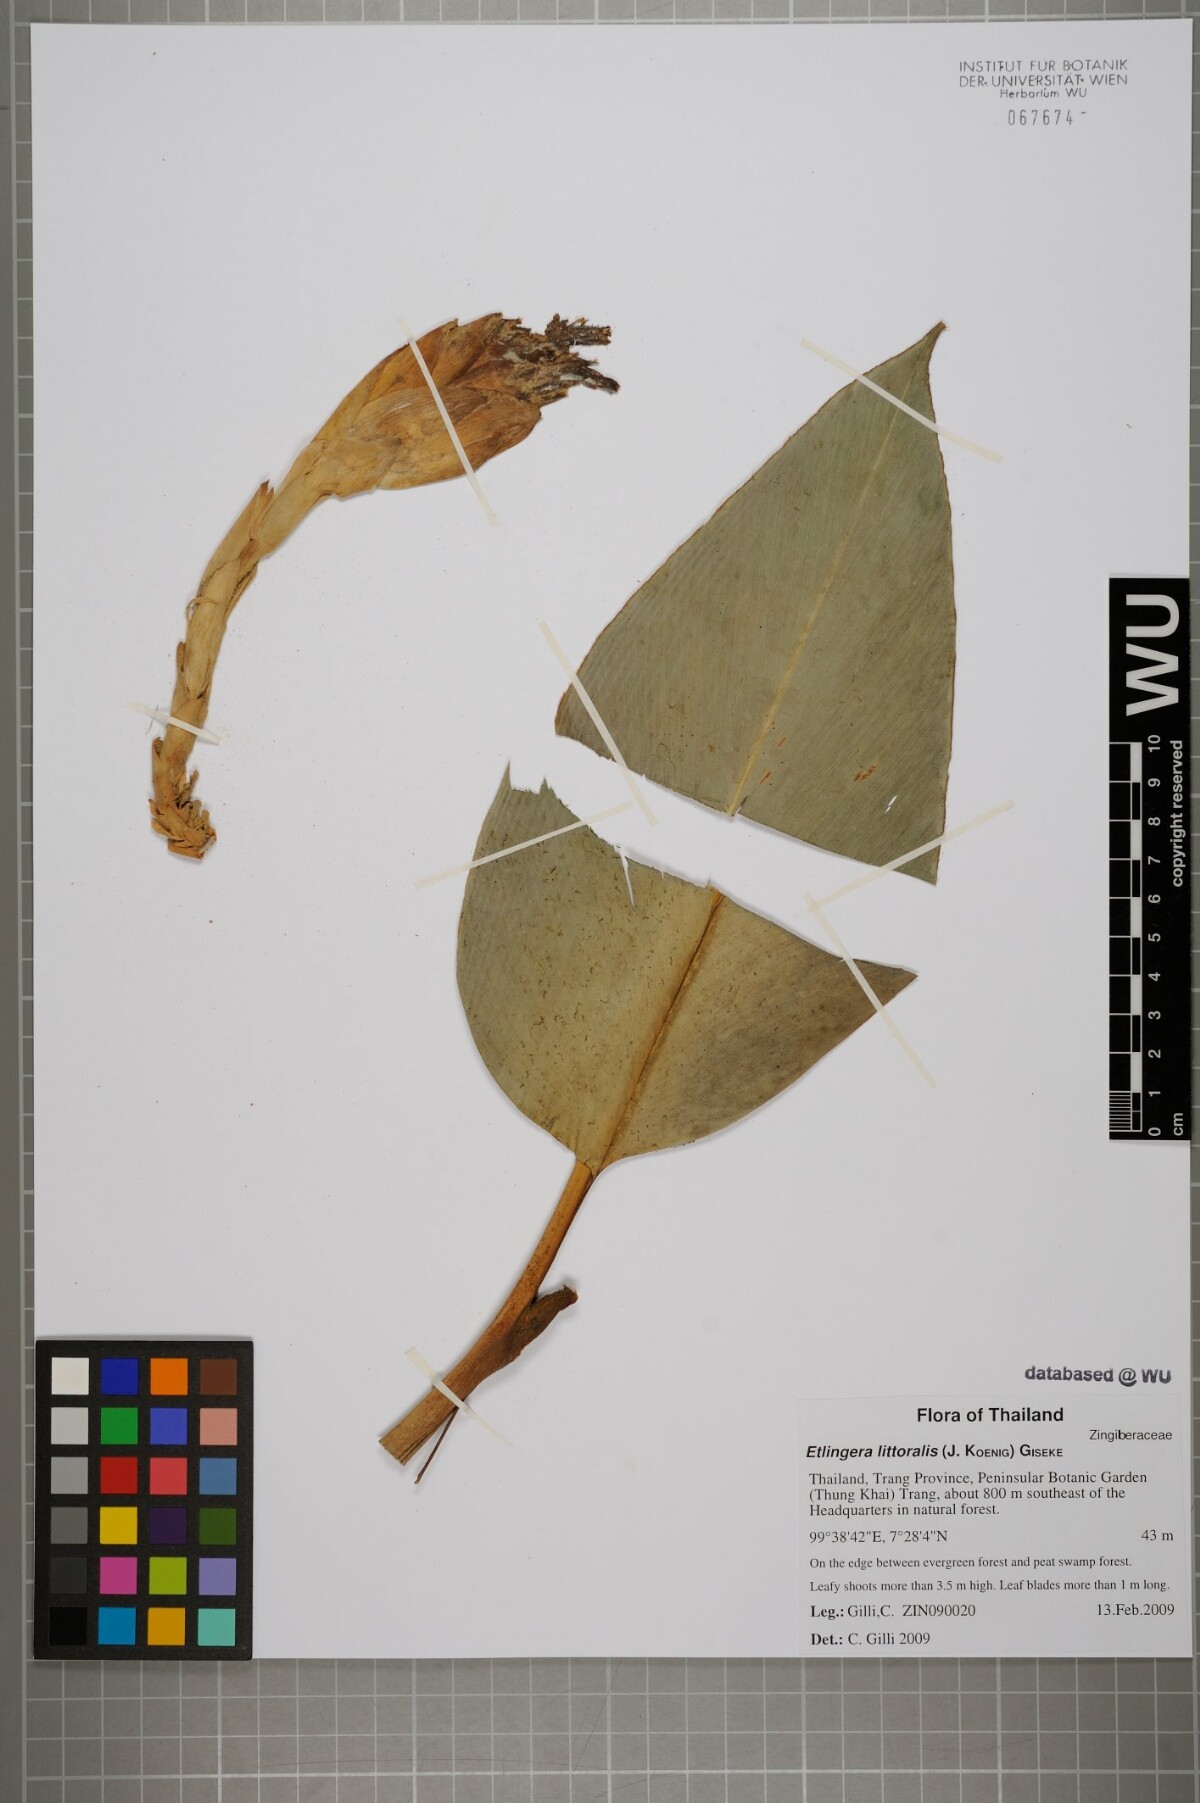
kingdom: Plantae
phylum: Tracheophyta
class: Liliopsida
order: Zingiberales
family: Zingiberaceae
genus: Etlingera
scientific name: Etlingera littoralis
